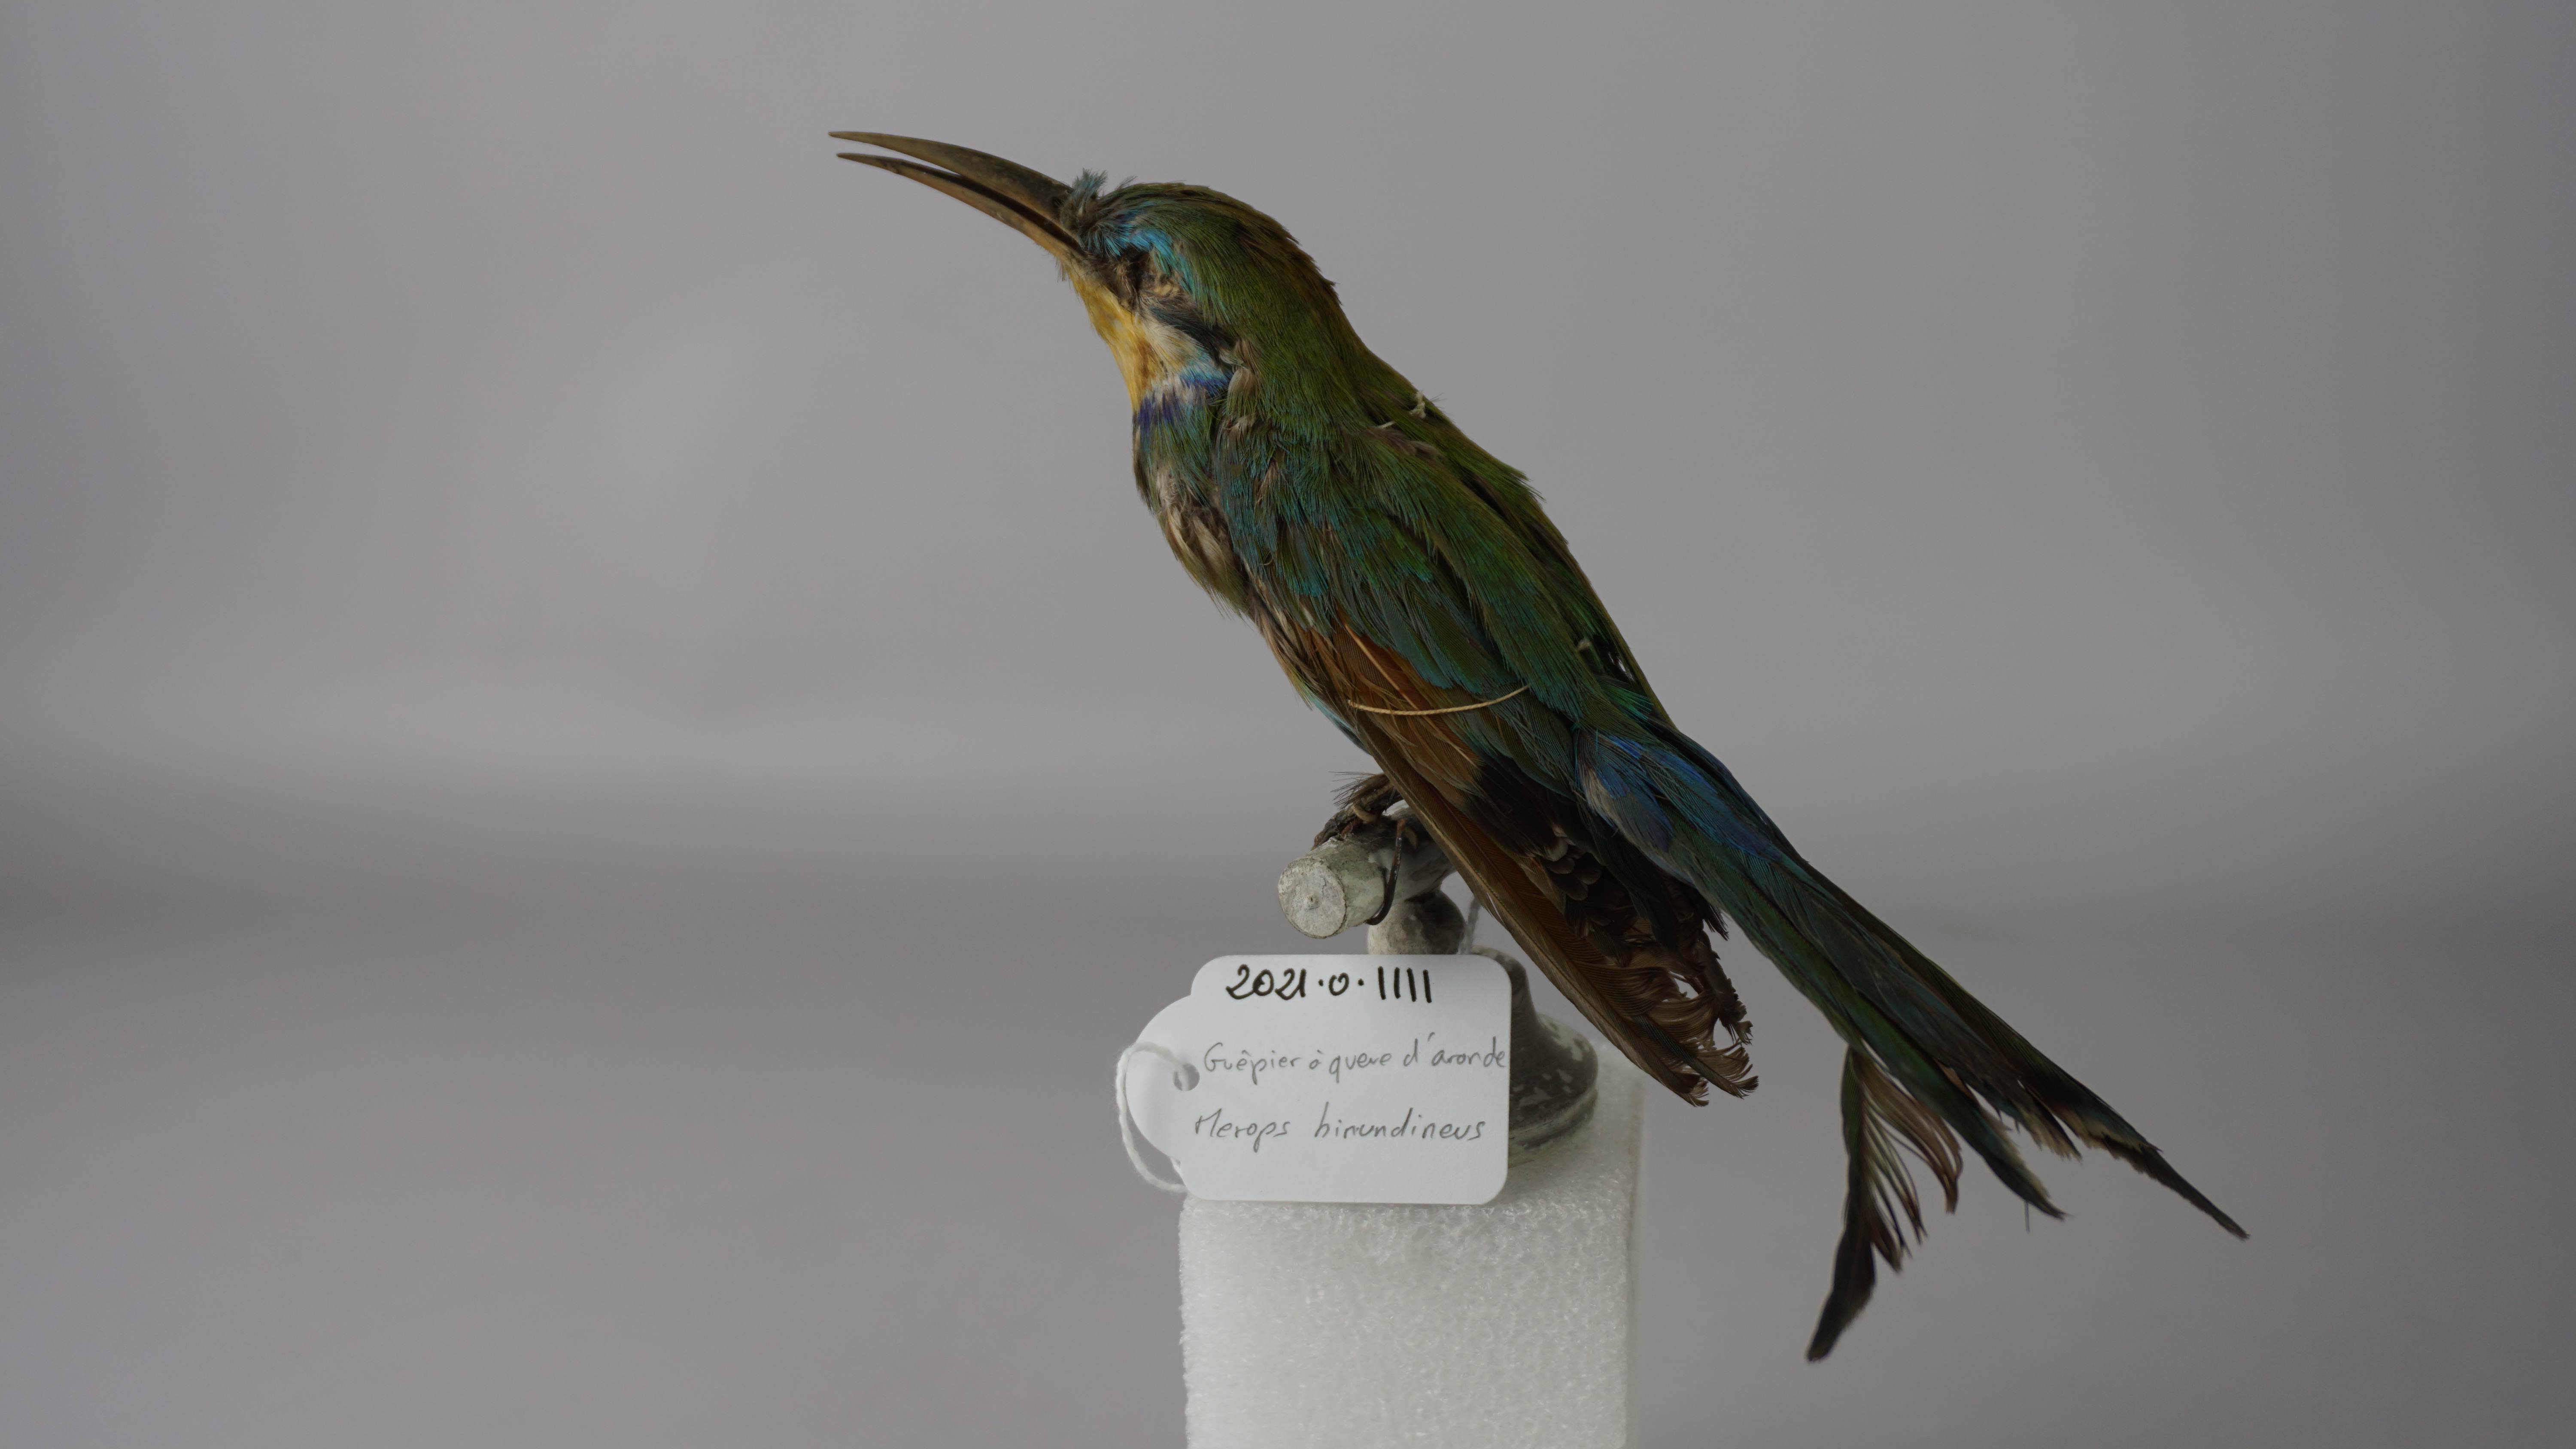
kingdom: Animalia
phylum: Chordata
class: Aves
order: Coraciiformes
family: Meropidae
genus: Merops
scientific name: Merops hirundineus
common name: Swallow-tailed bee-eater
